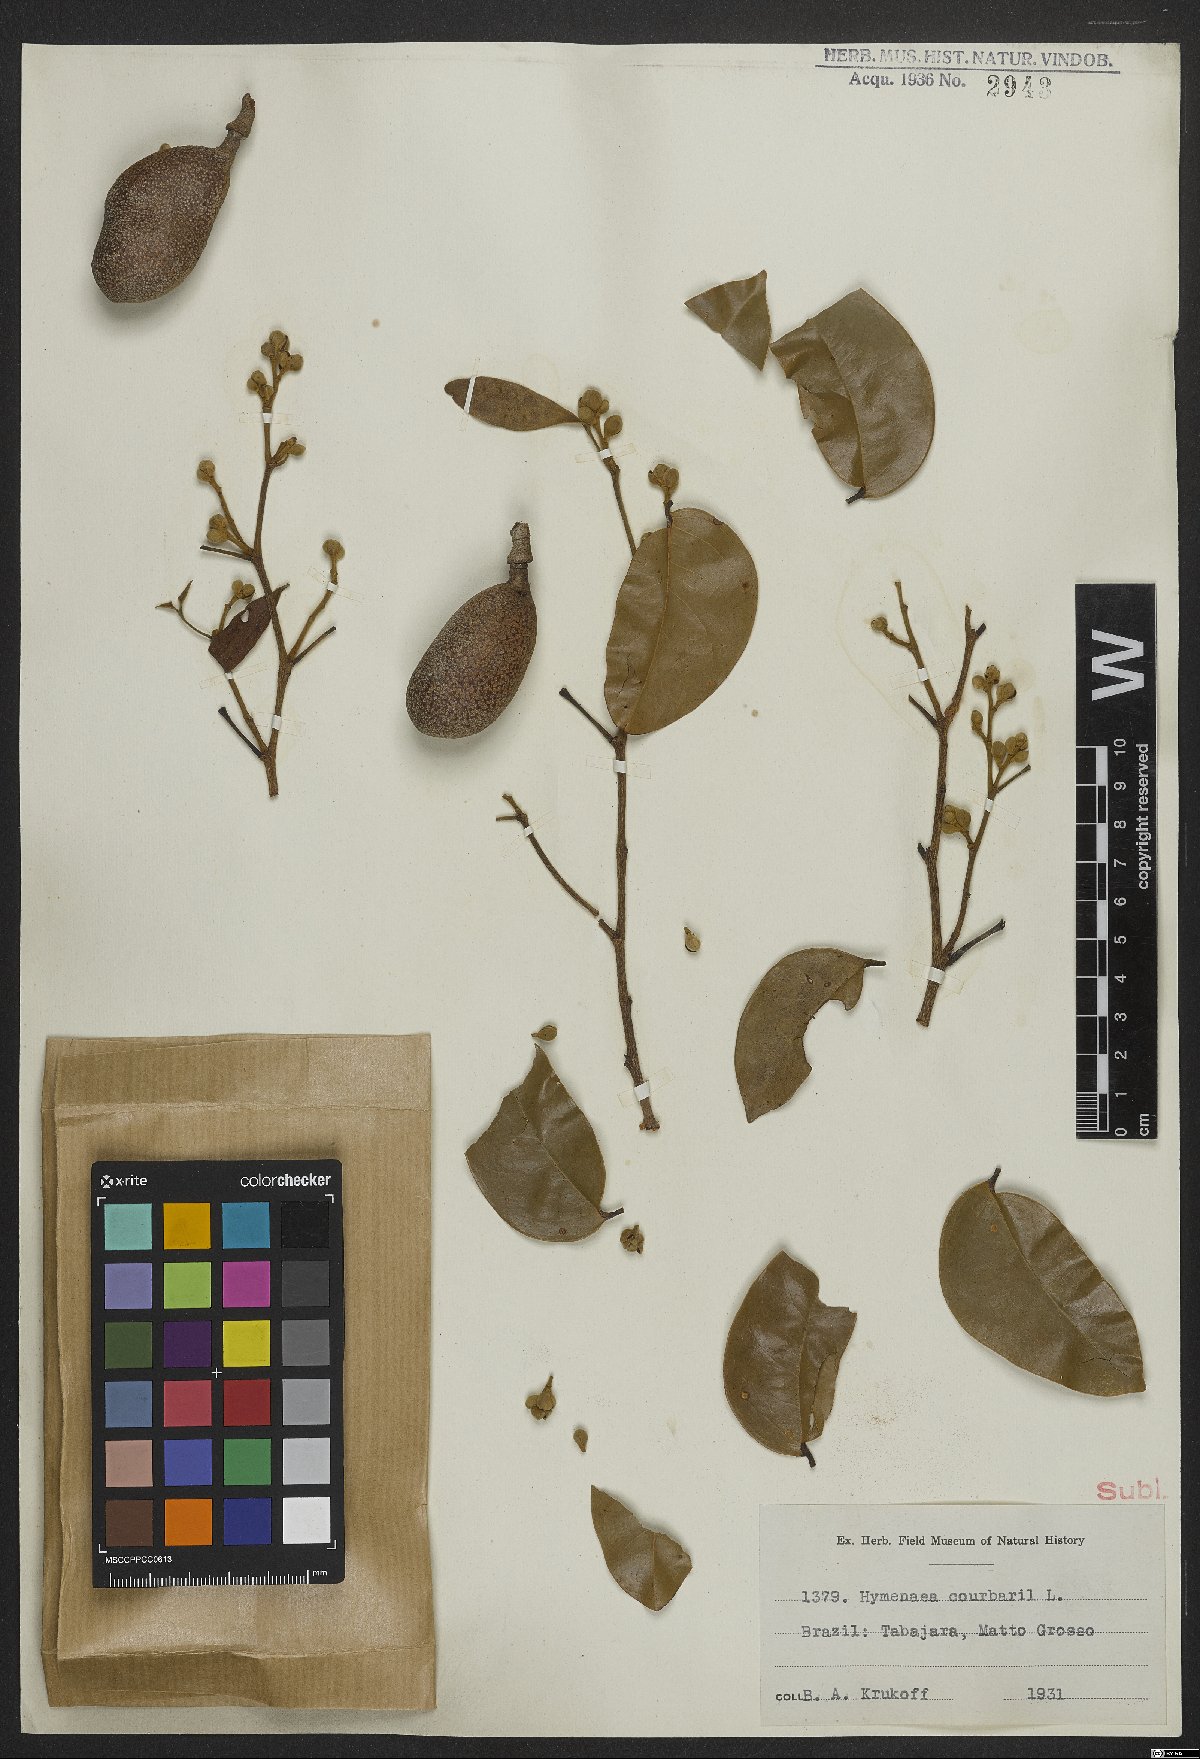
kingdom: Plantae
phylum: Tracheophyta
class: Magnoliopsida
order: Fabales
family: Fabaceae
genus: Hymenaea
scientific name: Hymenaea courbaril
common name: Brazilian copal
